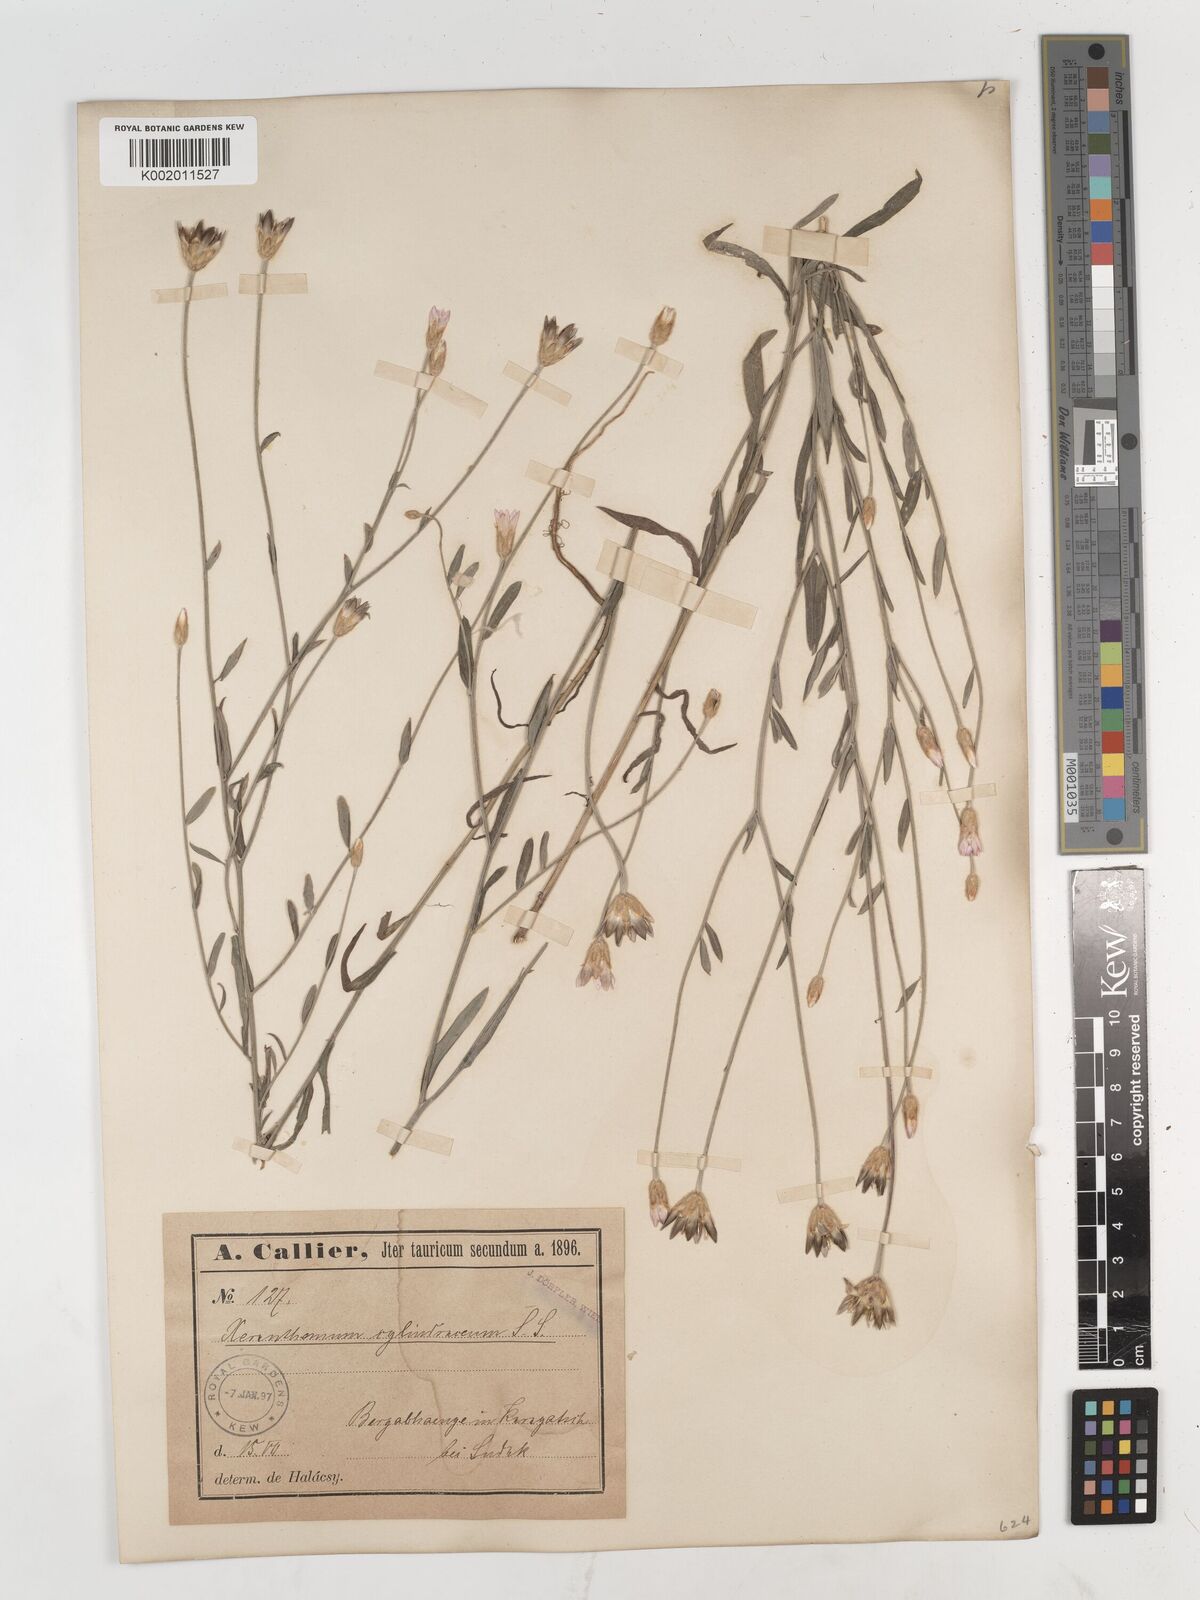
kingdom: Plantae
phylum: Tracheophyta
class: Magnoliopsida
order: Asterales
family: Asteraceae
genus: Xeranthemum
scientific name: Xeranthemum cylindraceum
